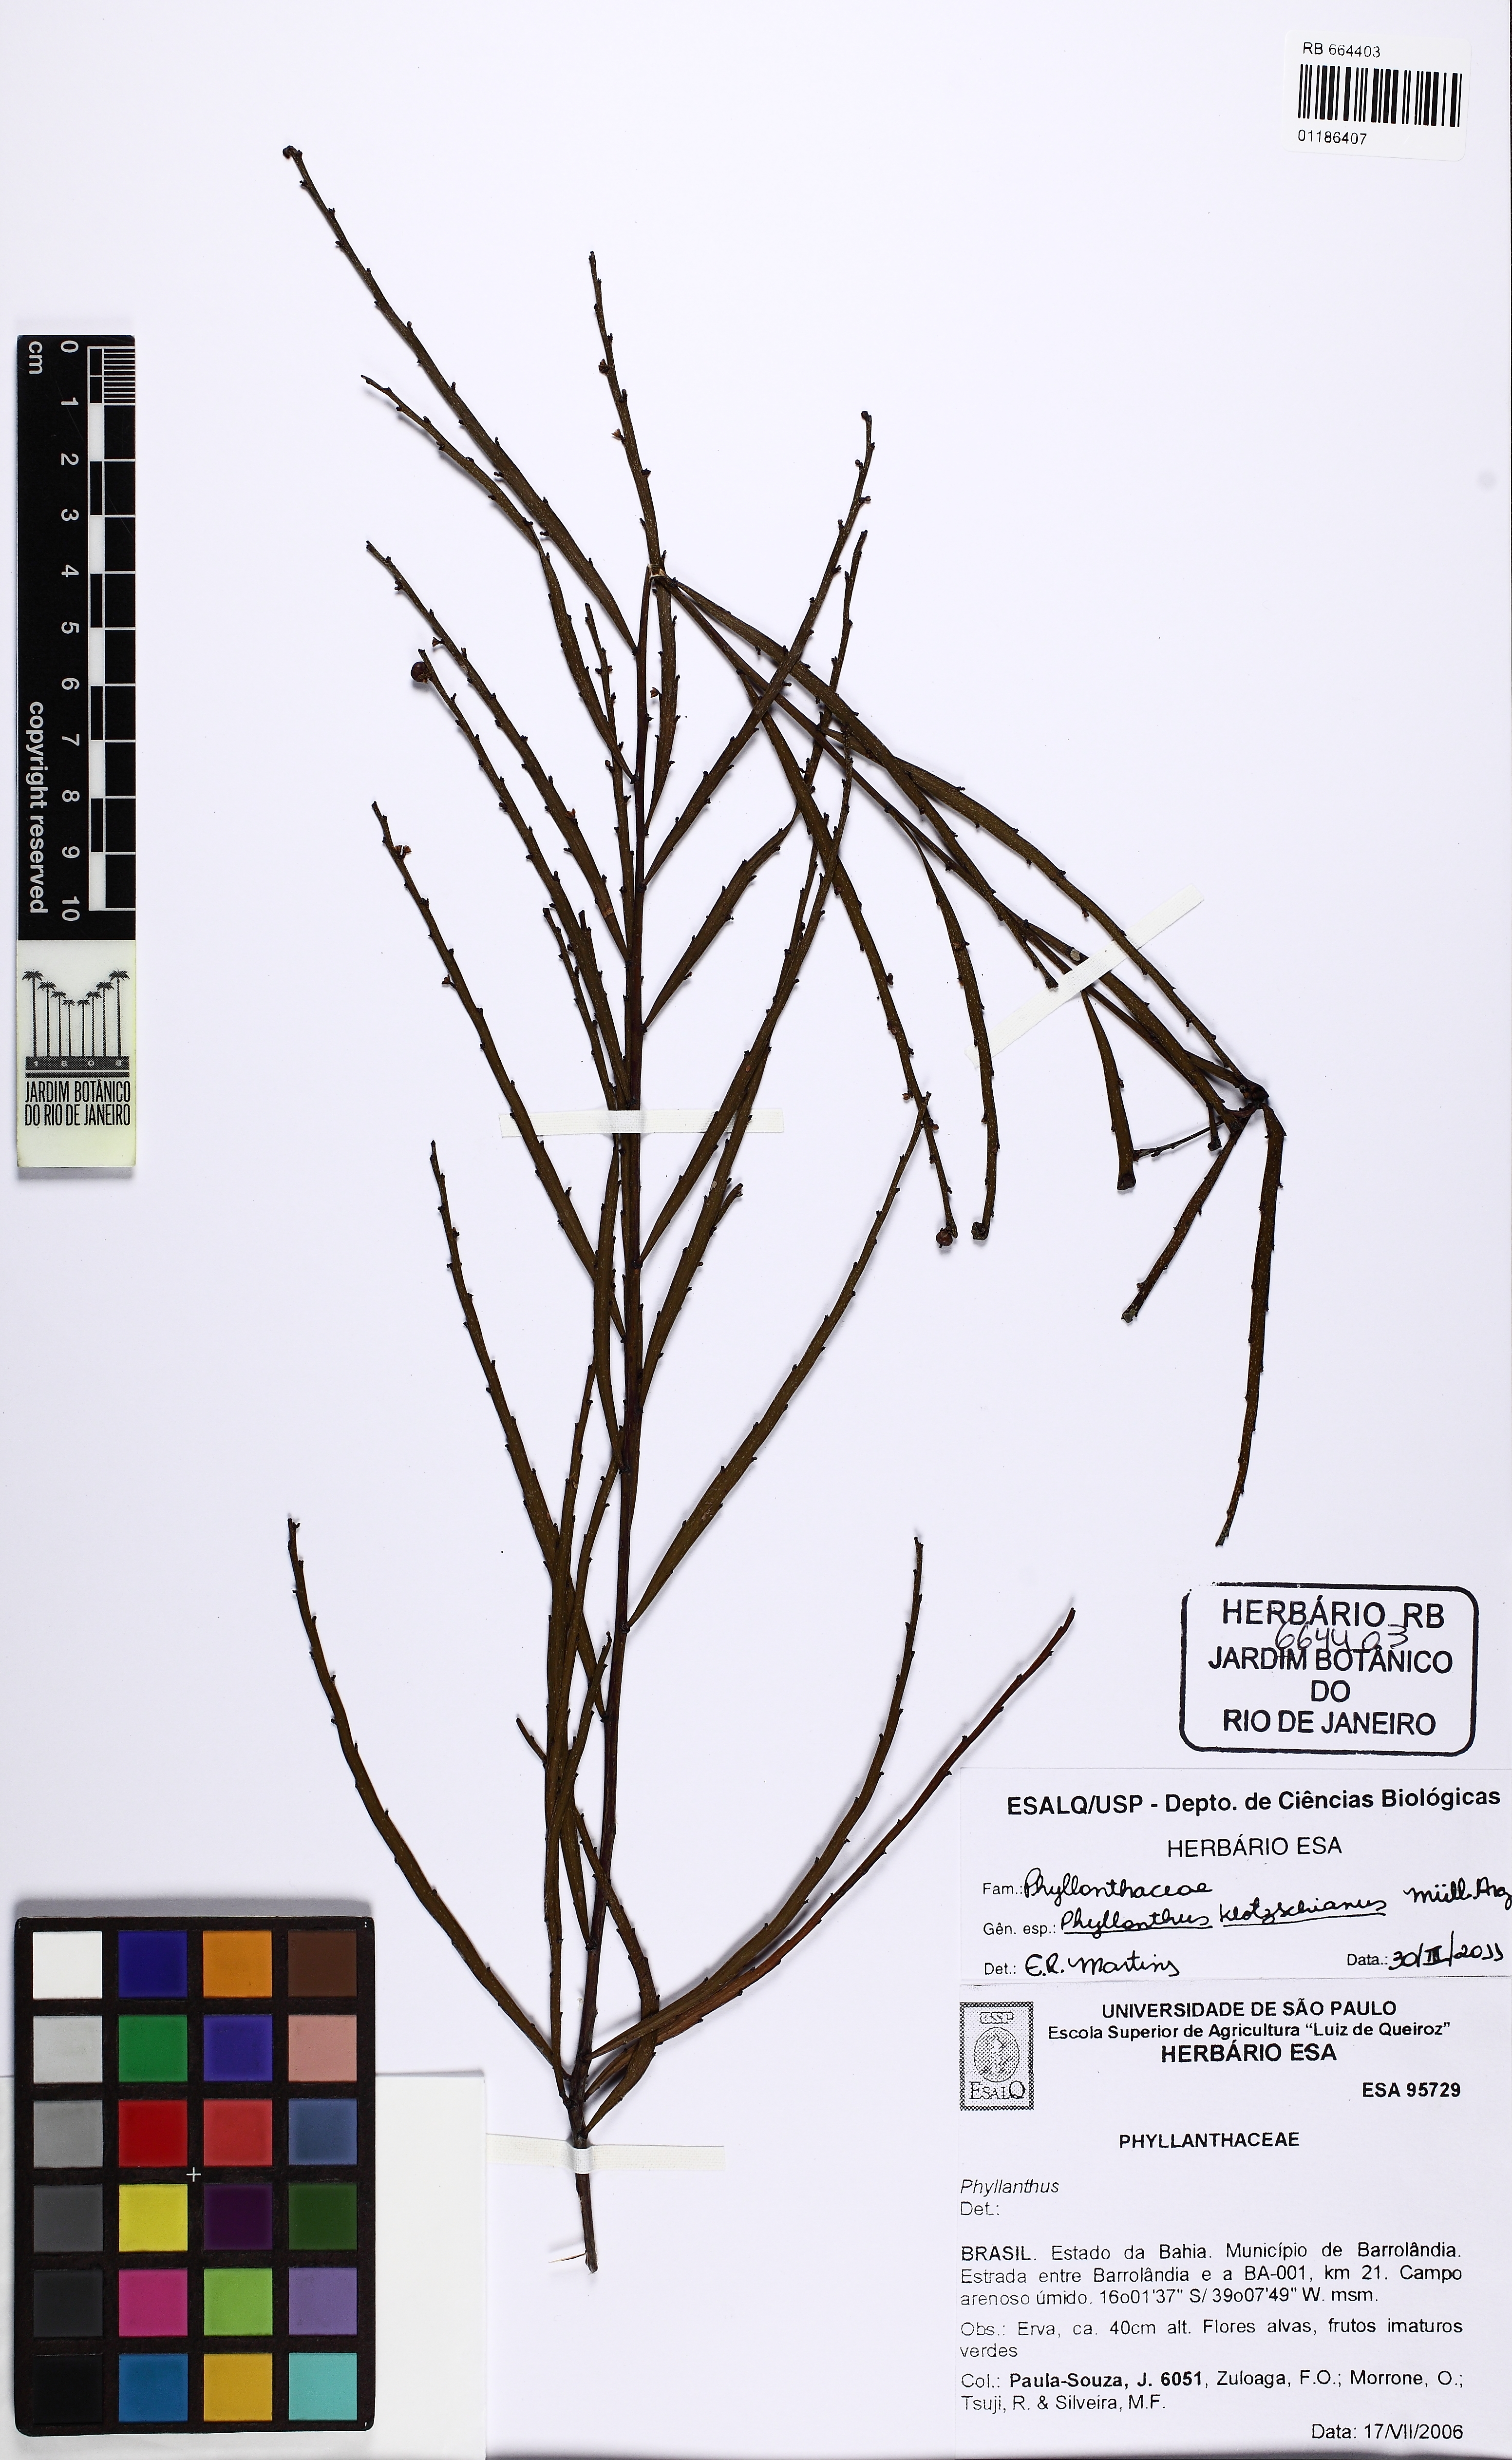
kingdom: Plantae
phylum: Tracheophyta
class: Magnoliopsida
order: Malpighiales
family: Phyllanthaceae
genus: Phyllanthus
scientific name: Phyllanthus robustus
